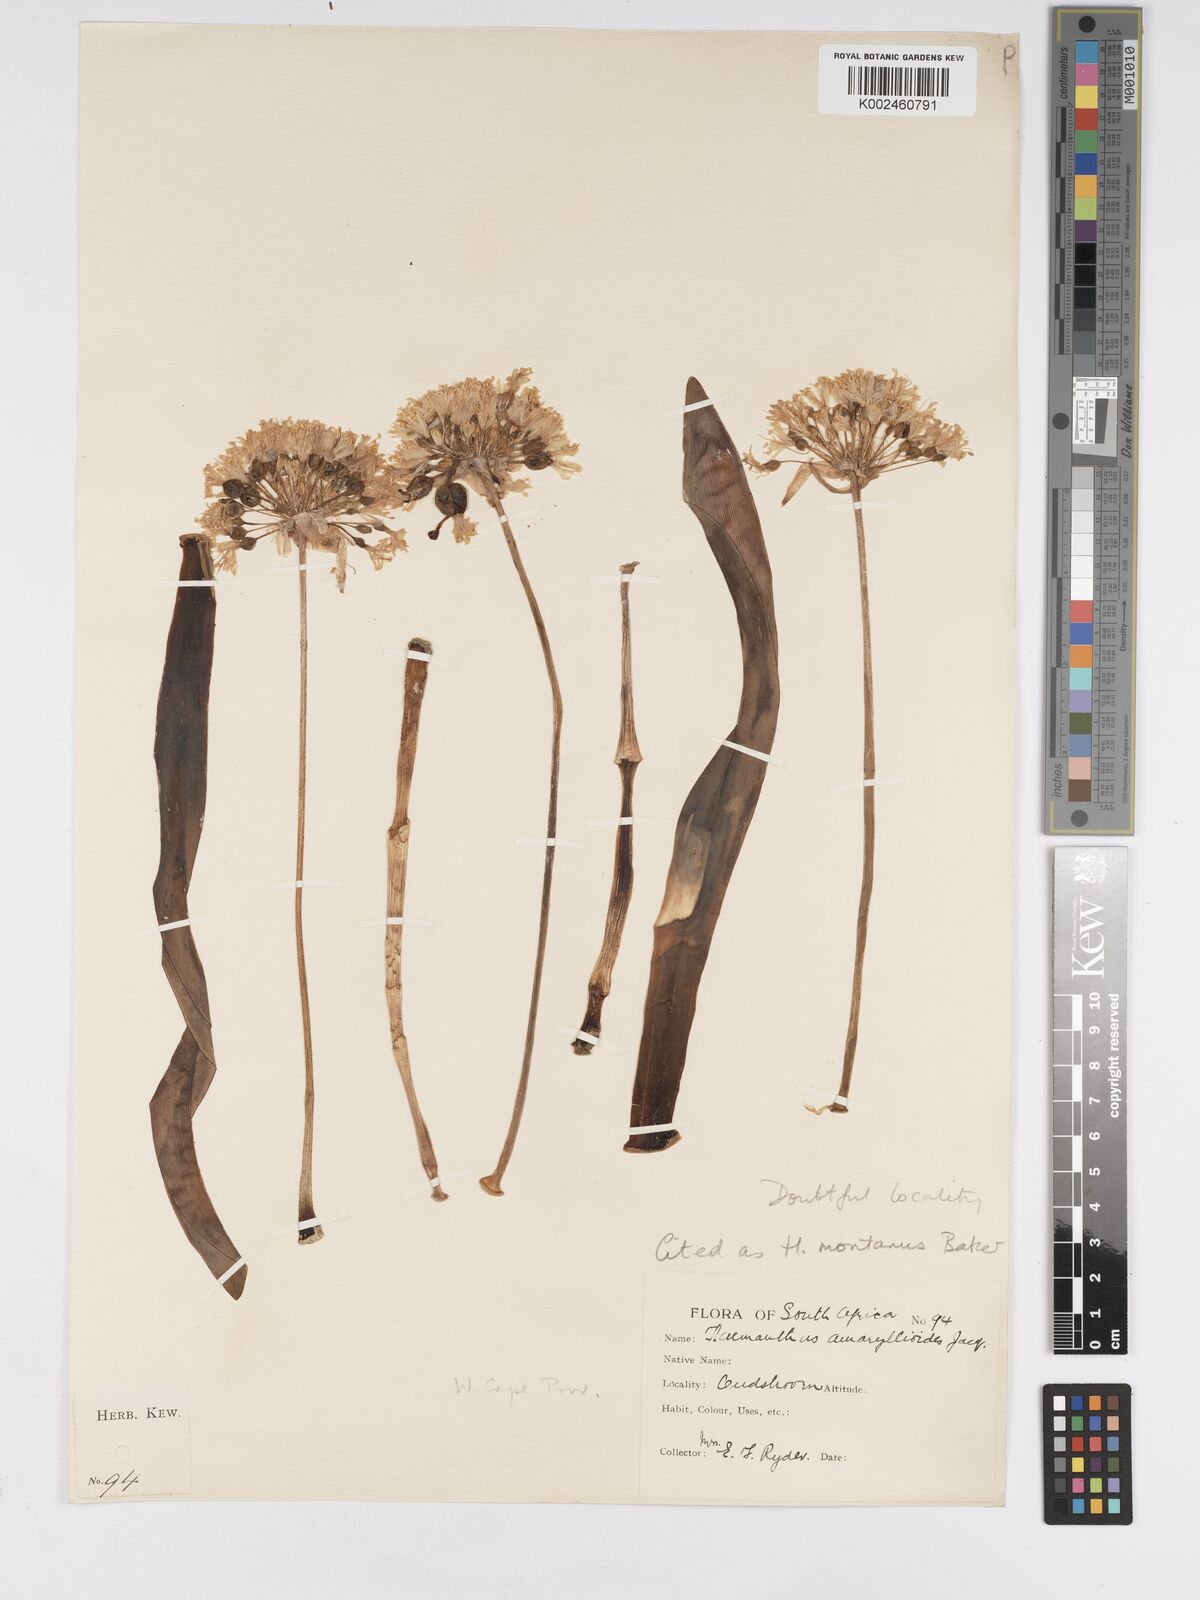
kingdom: Plantae
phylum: Tracheophyta
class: Liliopsida
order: Asparagales
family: Amaryllidaceae
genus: Haemanthus
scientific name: Haemanthus montanus
